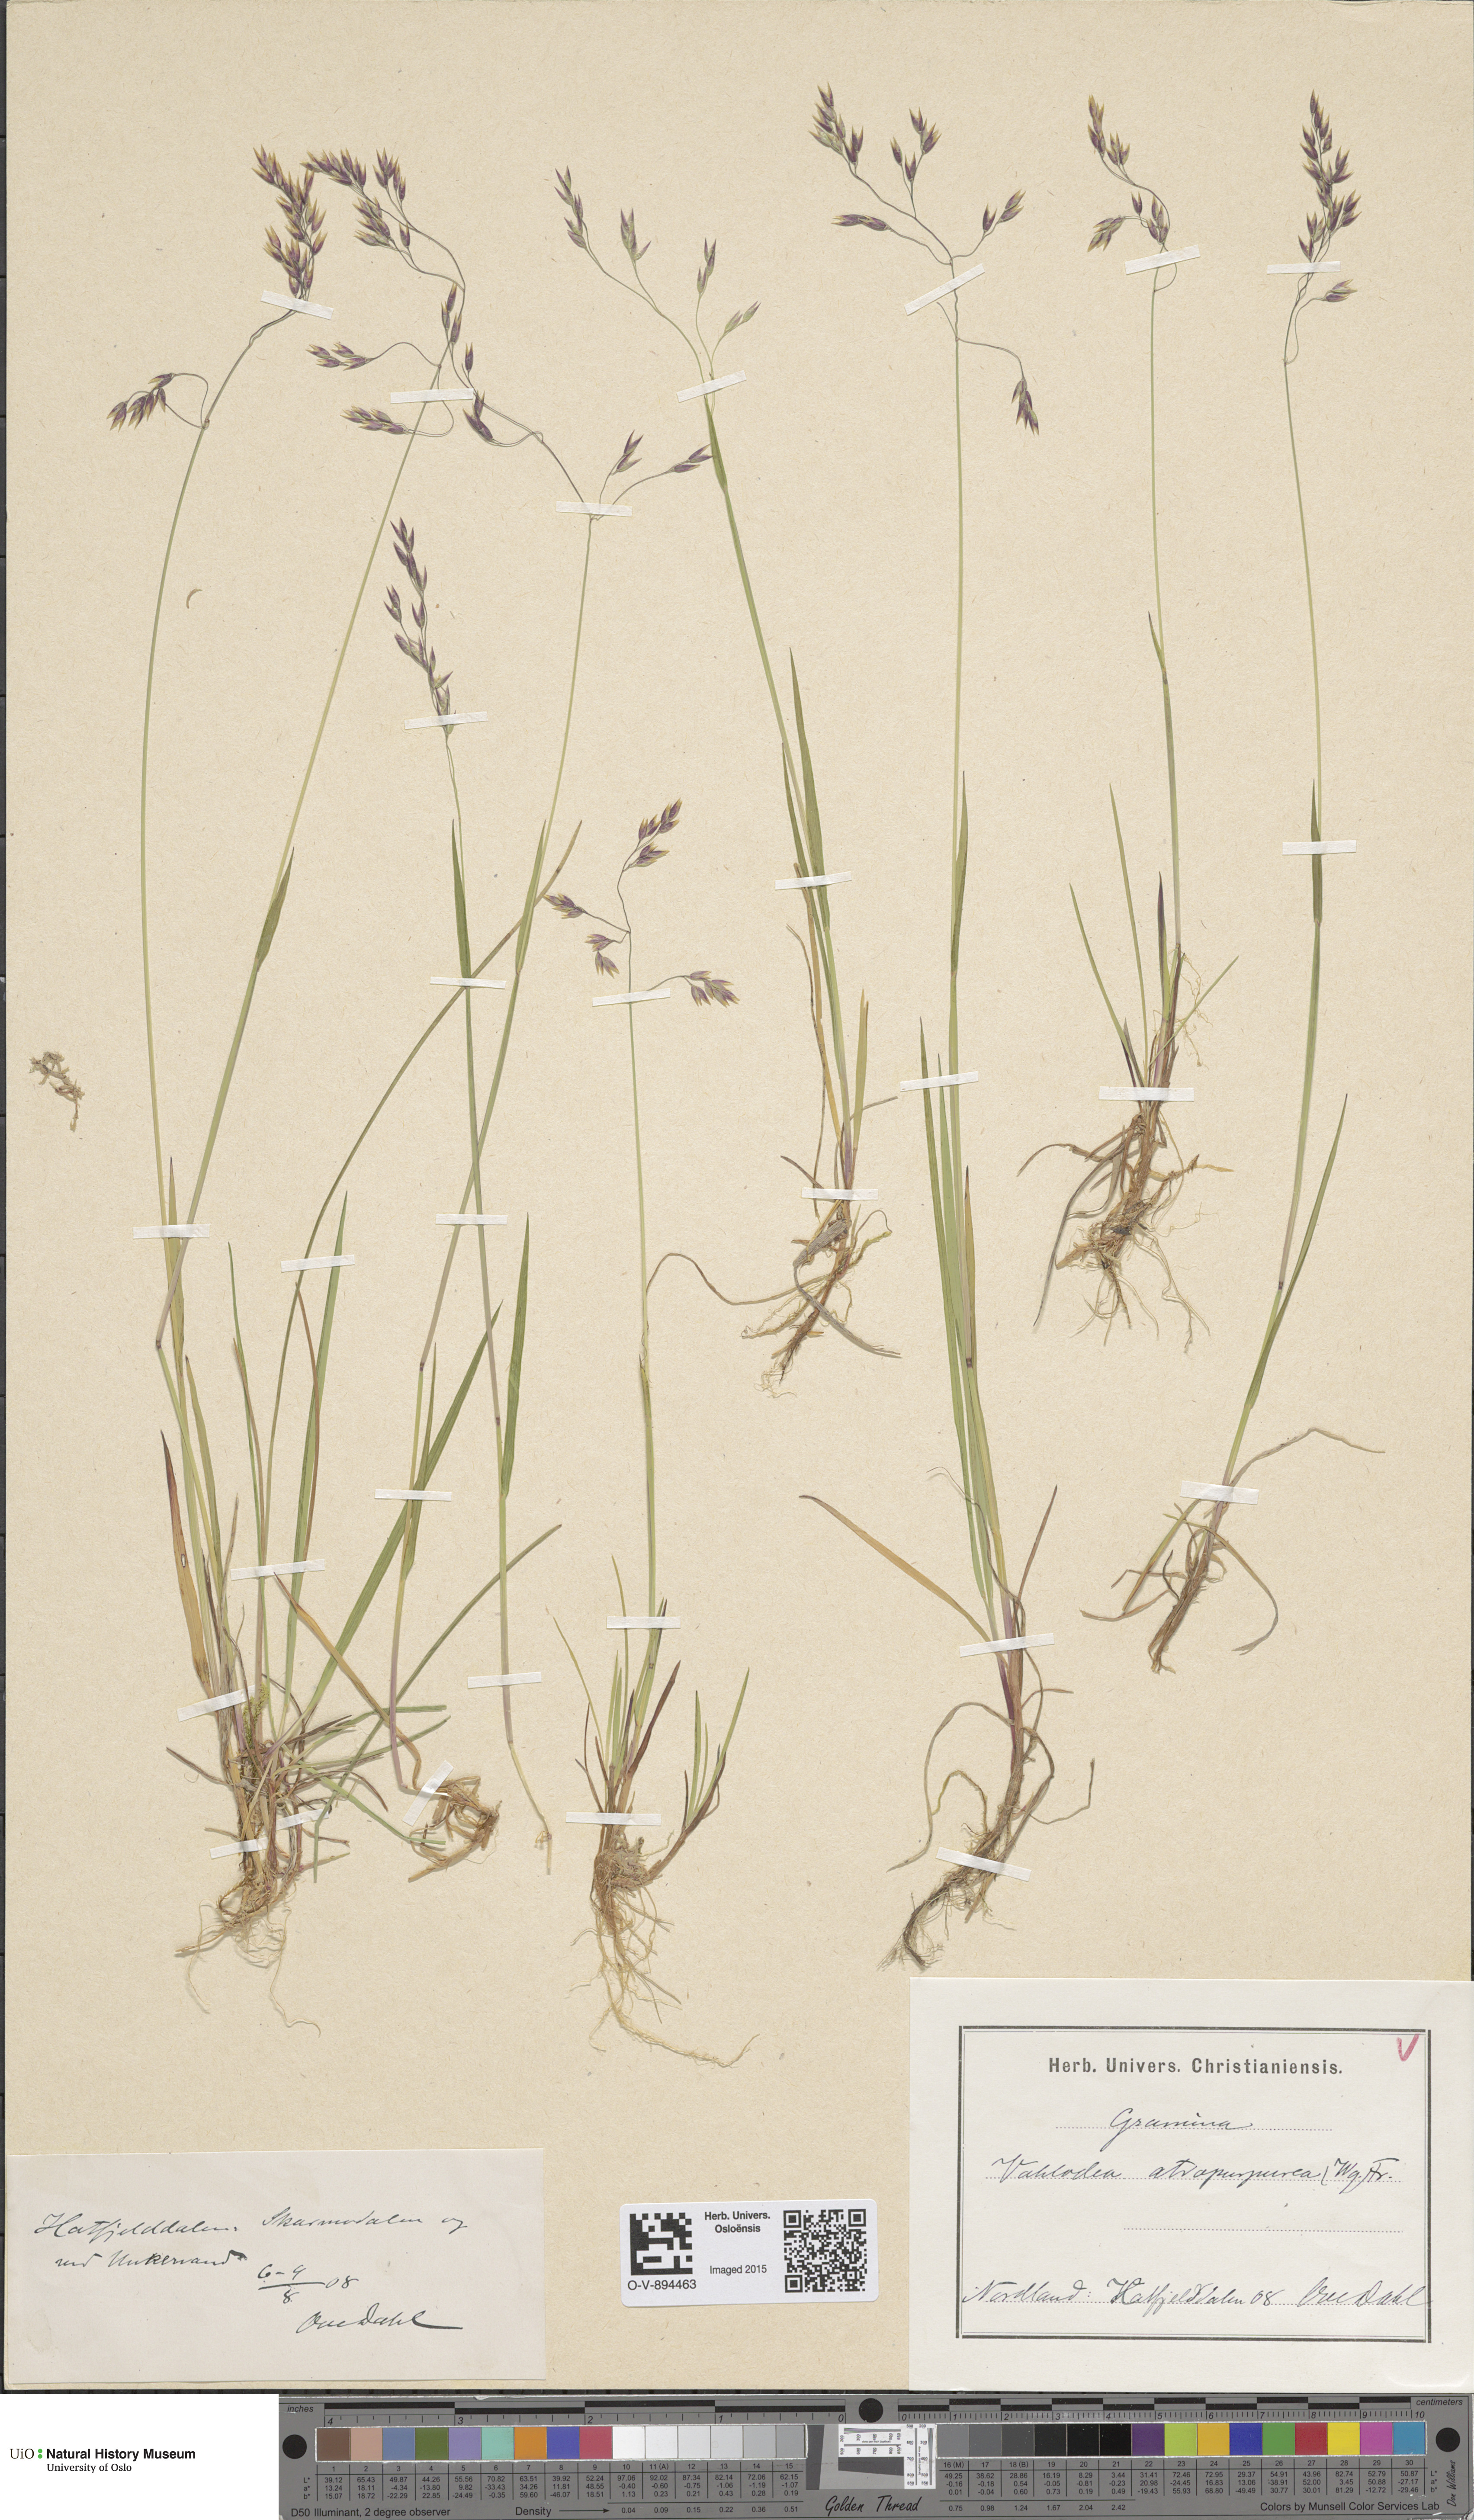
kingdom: Plantae
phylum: Tracheophyta
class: Liliopsida
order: Poales
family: Poaceae
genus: Vahlodea
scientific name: Vahlodea atropurpurea
